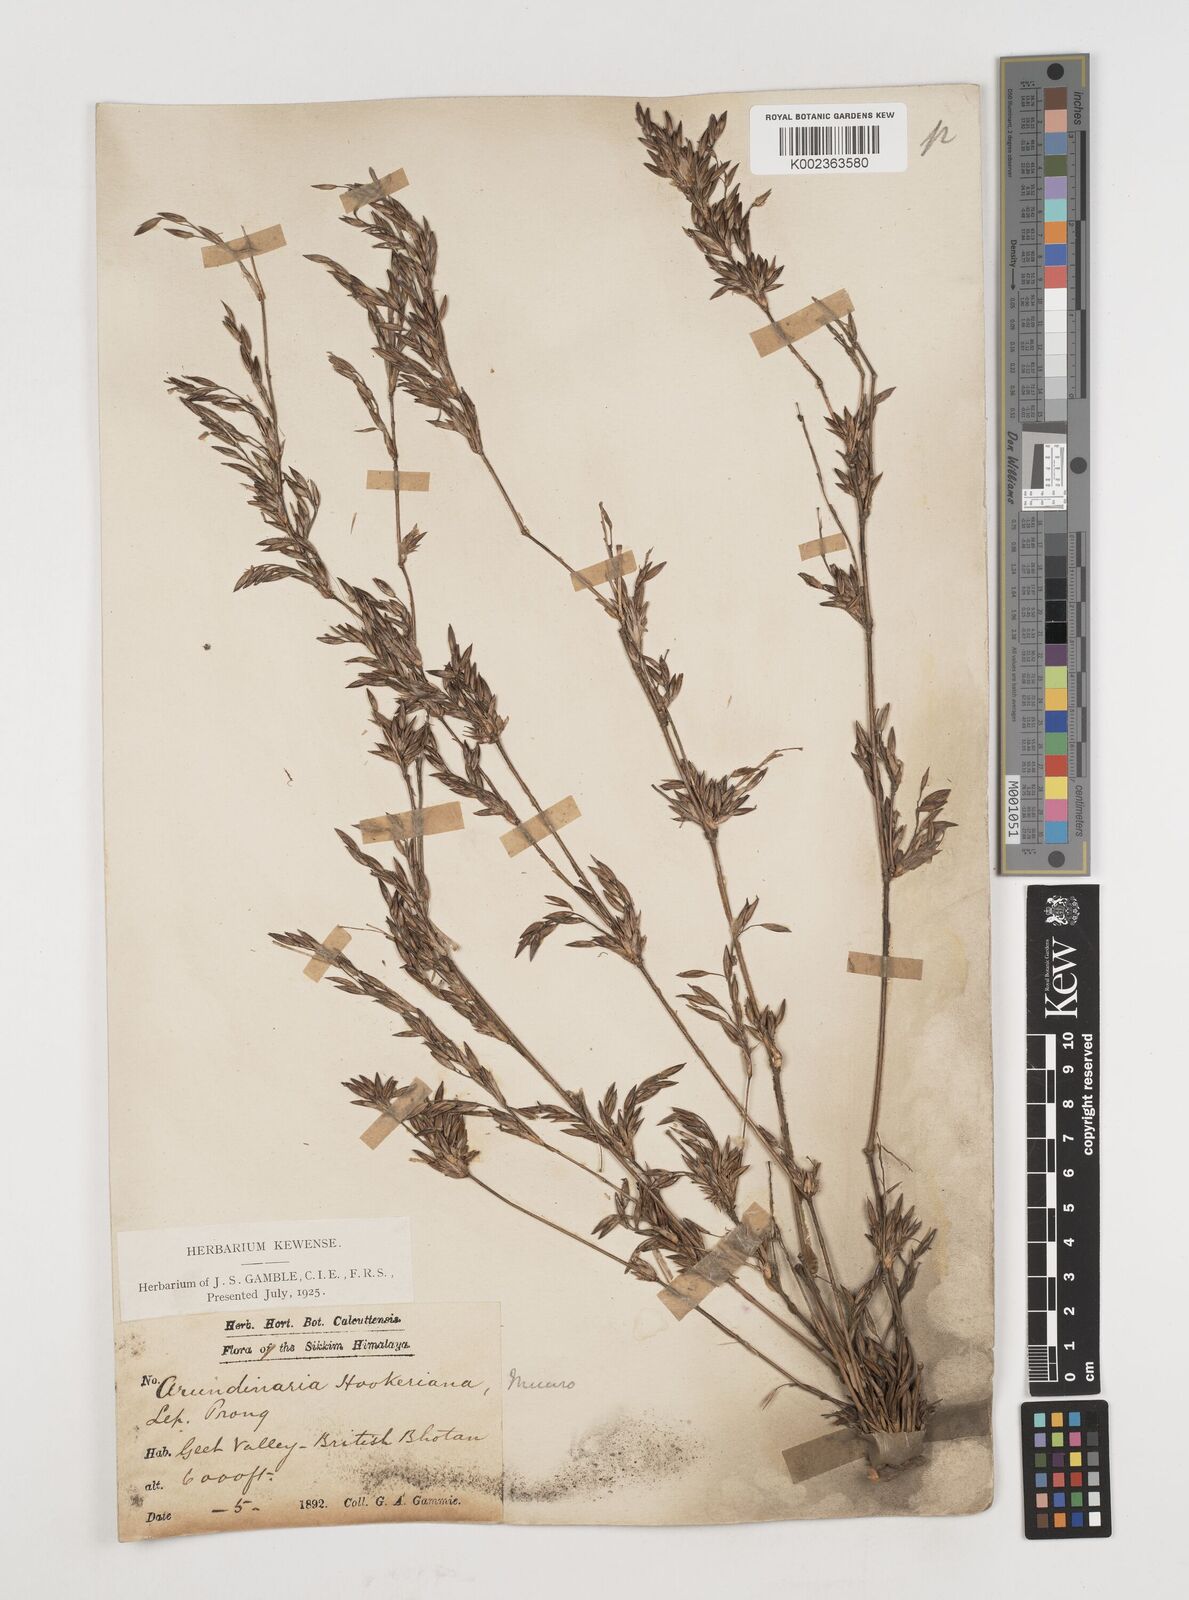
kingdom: Plantae
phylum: Tracheophyta
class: Liliopsida
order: Poales
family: Poaceae
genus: Himalayacalamus
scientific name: Himalayacalamus hookerianus
